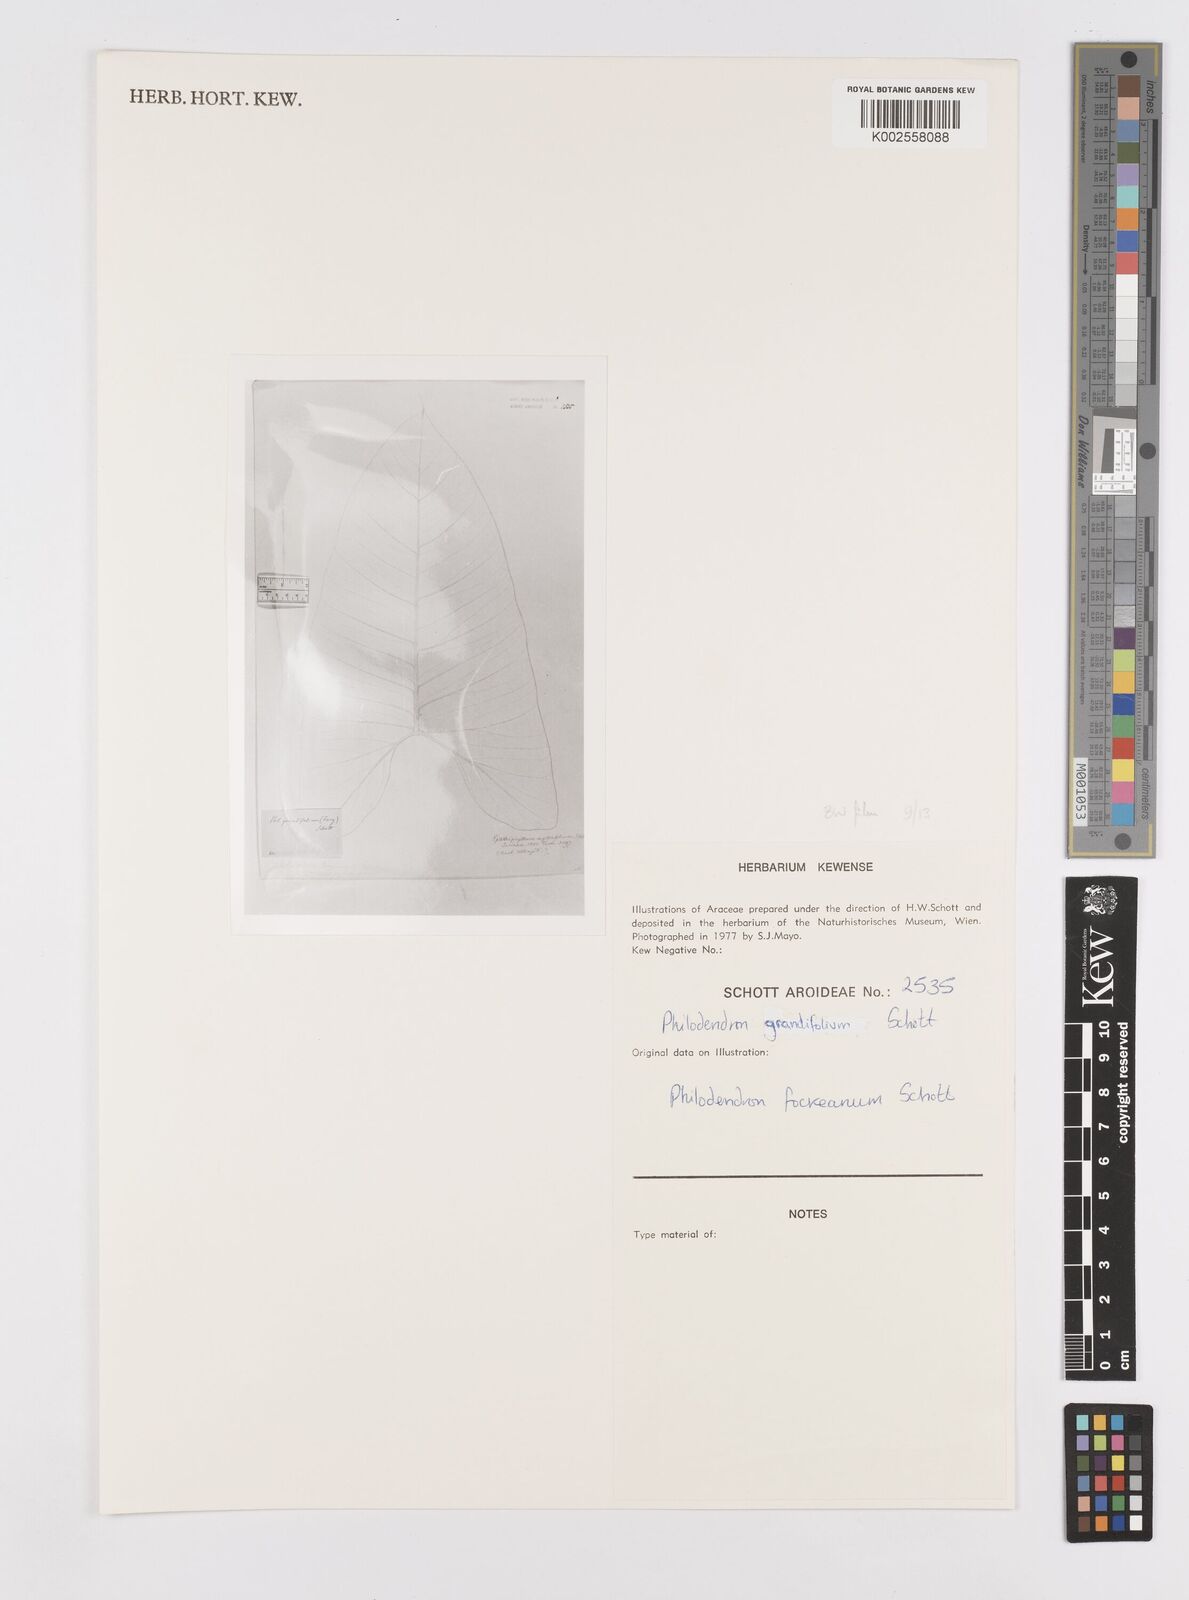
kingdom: Plantae
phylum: Tracheophyta
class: Liliopsida
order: Alismatales
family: Araceae
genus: Philodendron
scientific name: Philodendron grandifolium
